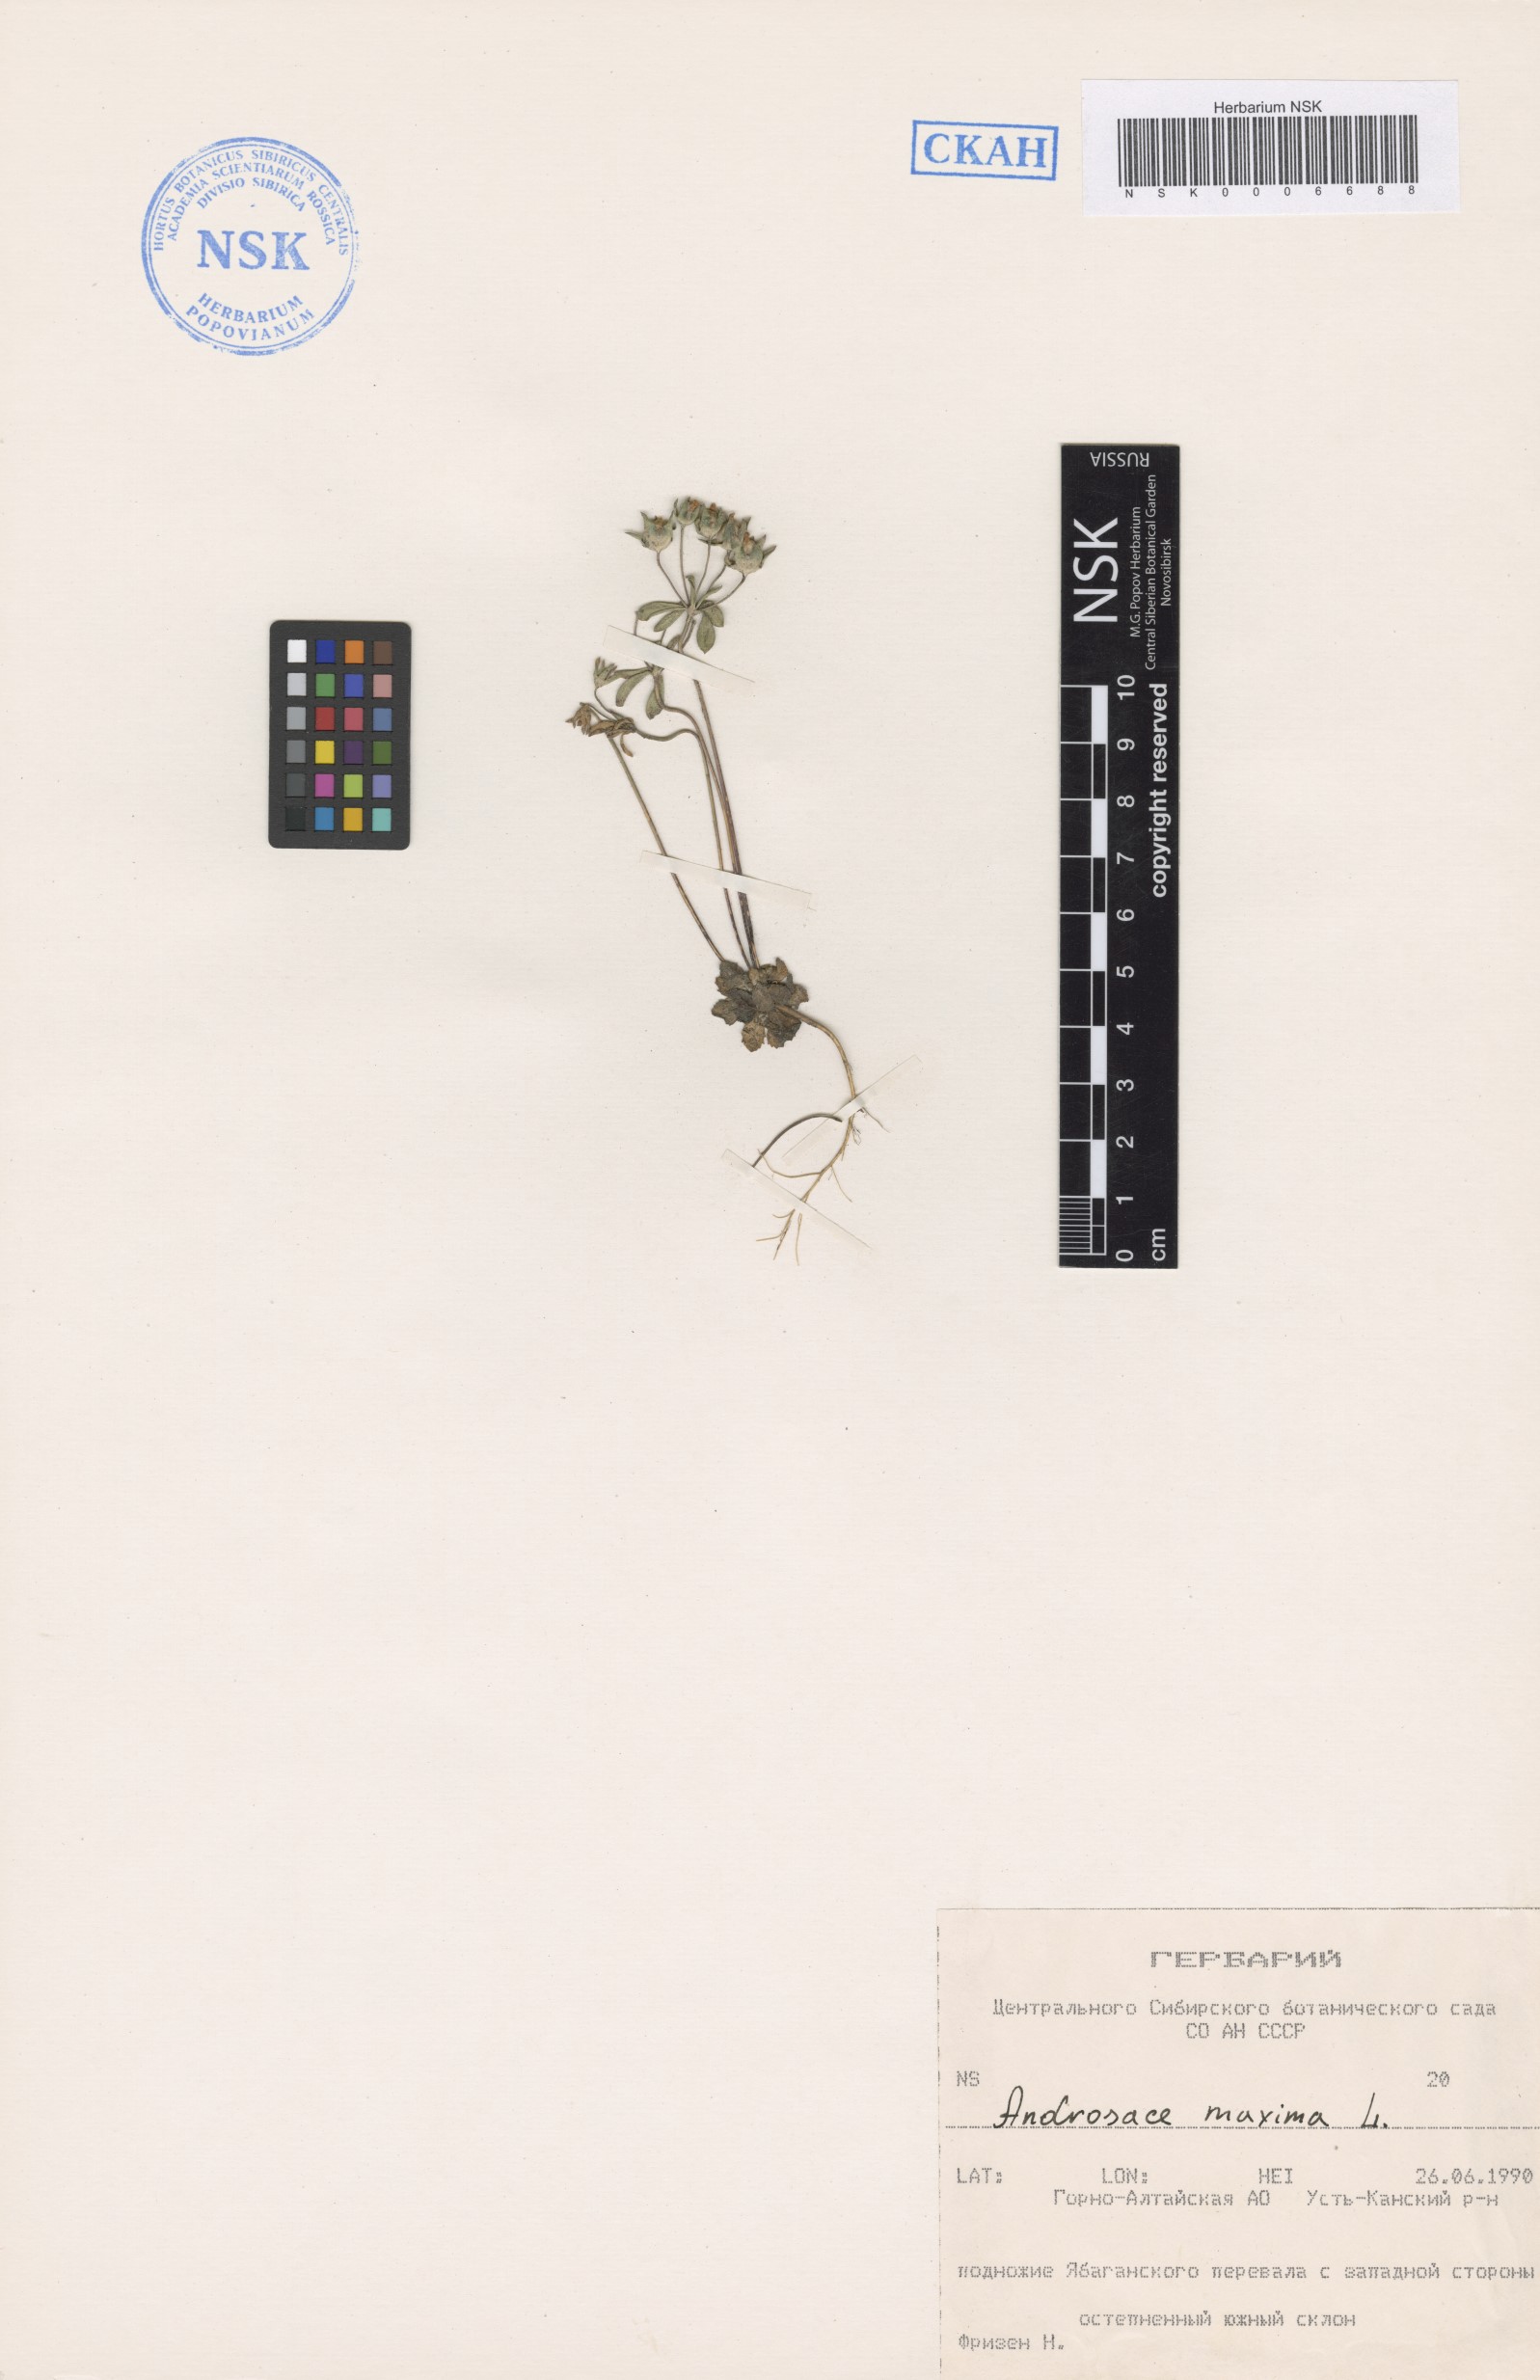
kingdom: Plantae
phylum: Tracheophyta
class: Magnoliopsida
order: Ericales
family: Primulaceae
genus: Androsace
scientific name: Androsace maxima
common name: Annual androsace
